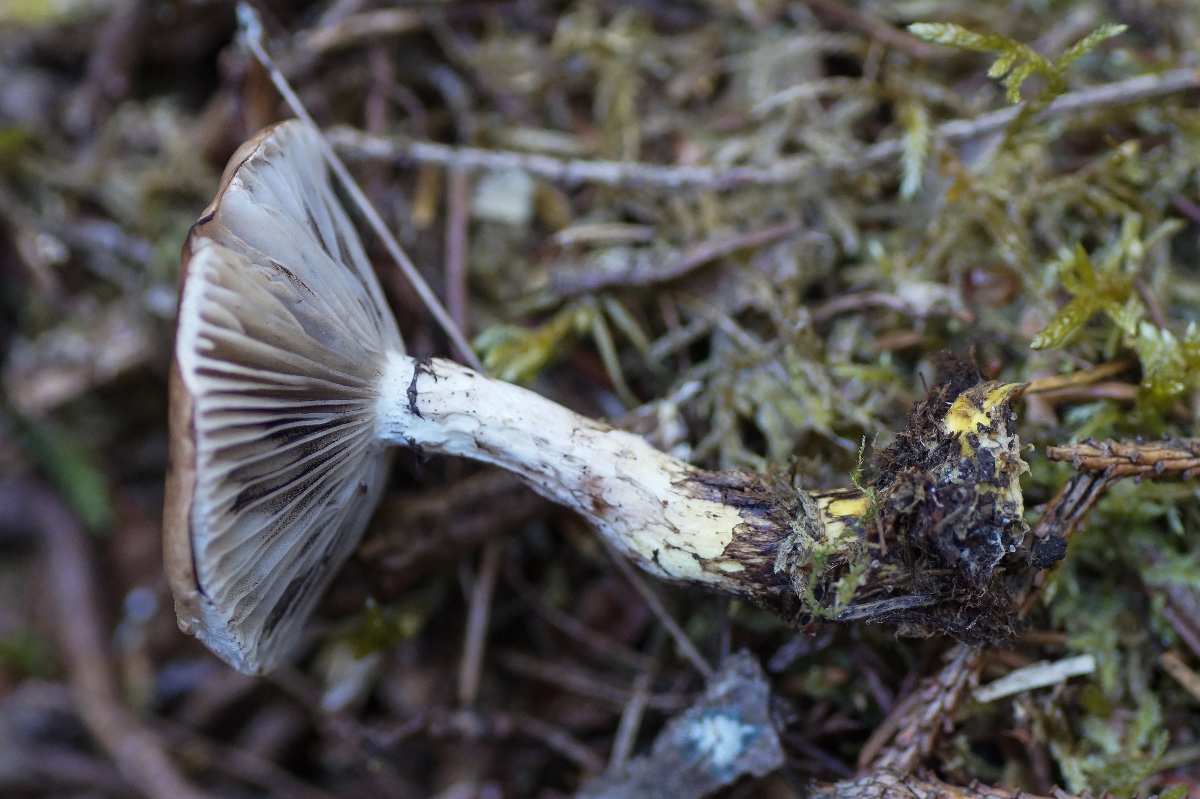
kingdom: Fungi
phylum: Basidiomycota
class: Agaricomycetes
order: Boletales
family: Gomphidiaceae
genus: Gomphidius
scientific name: Gomphidius glutinosus
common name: grå slimslør
